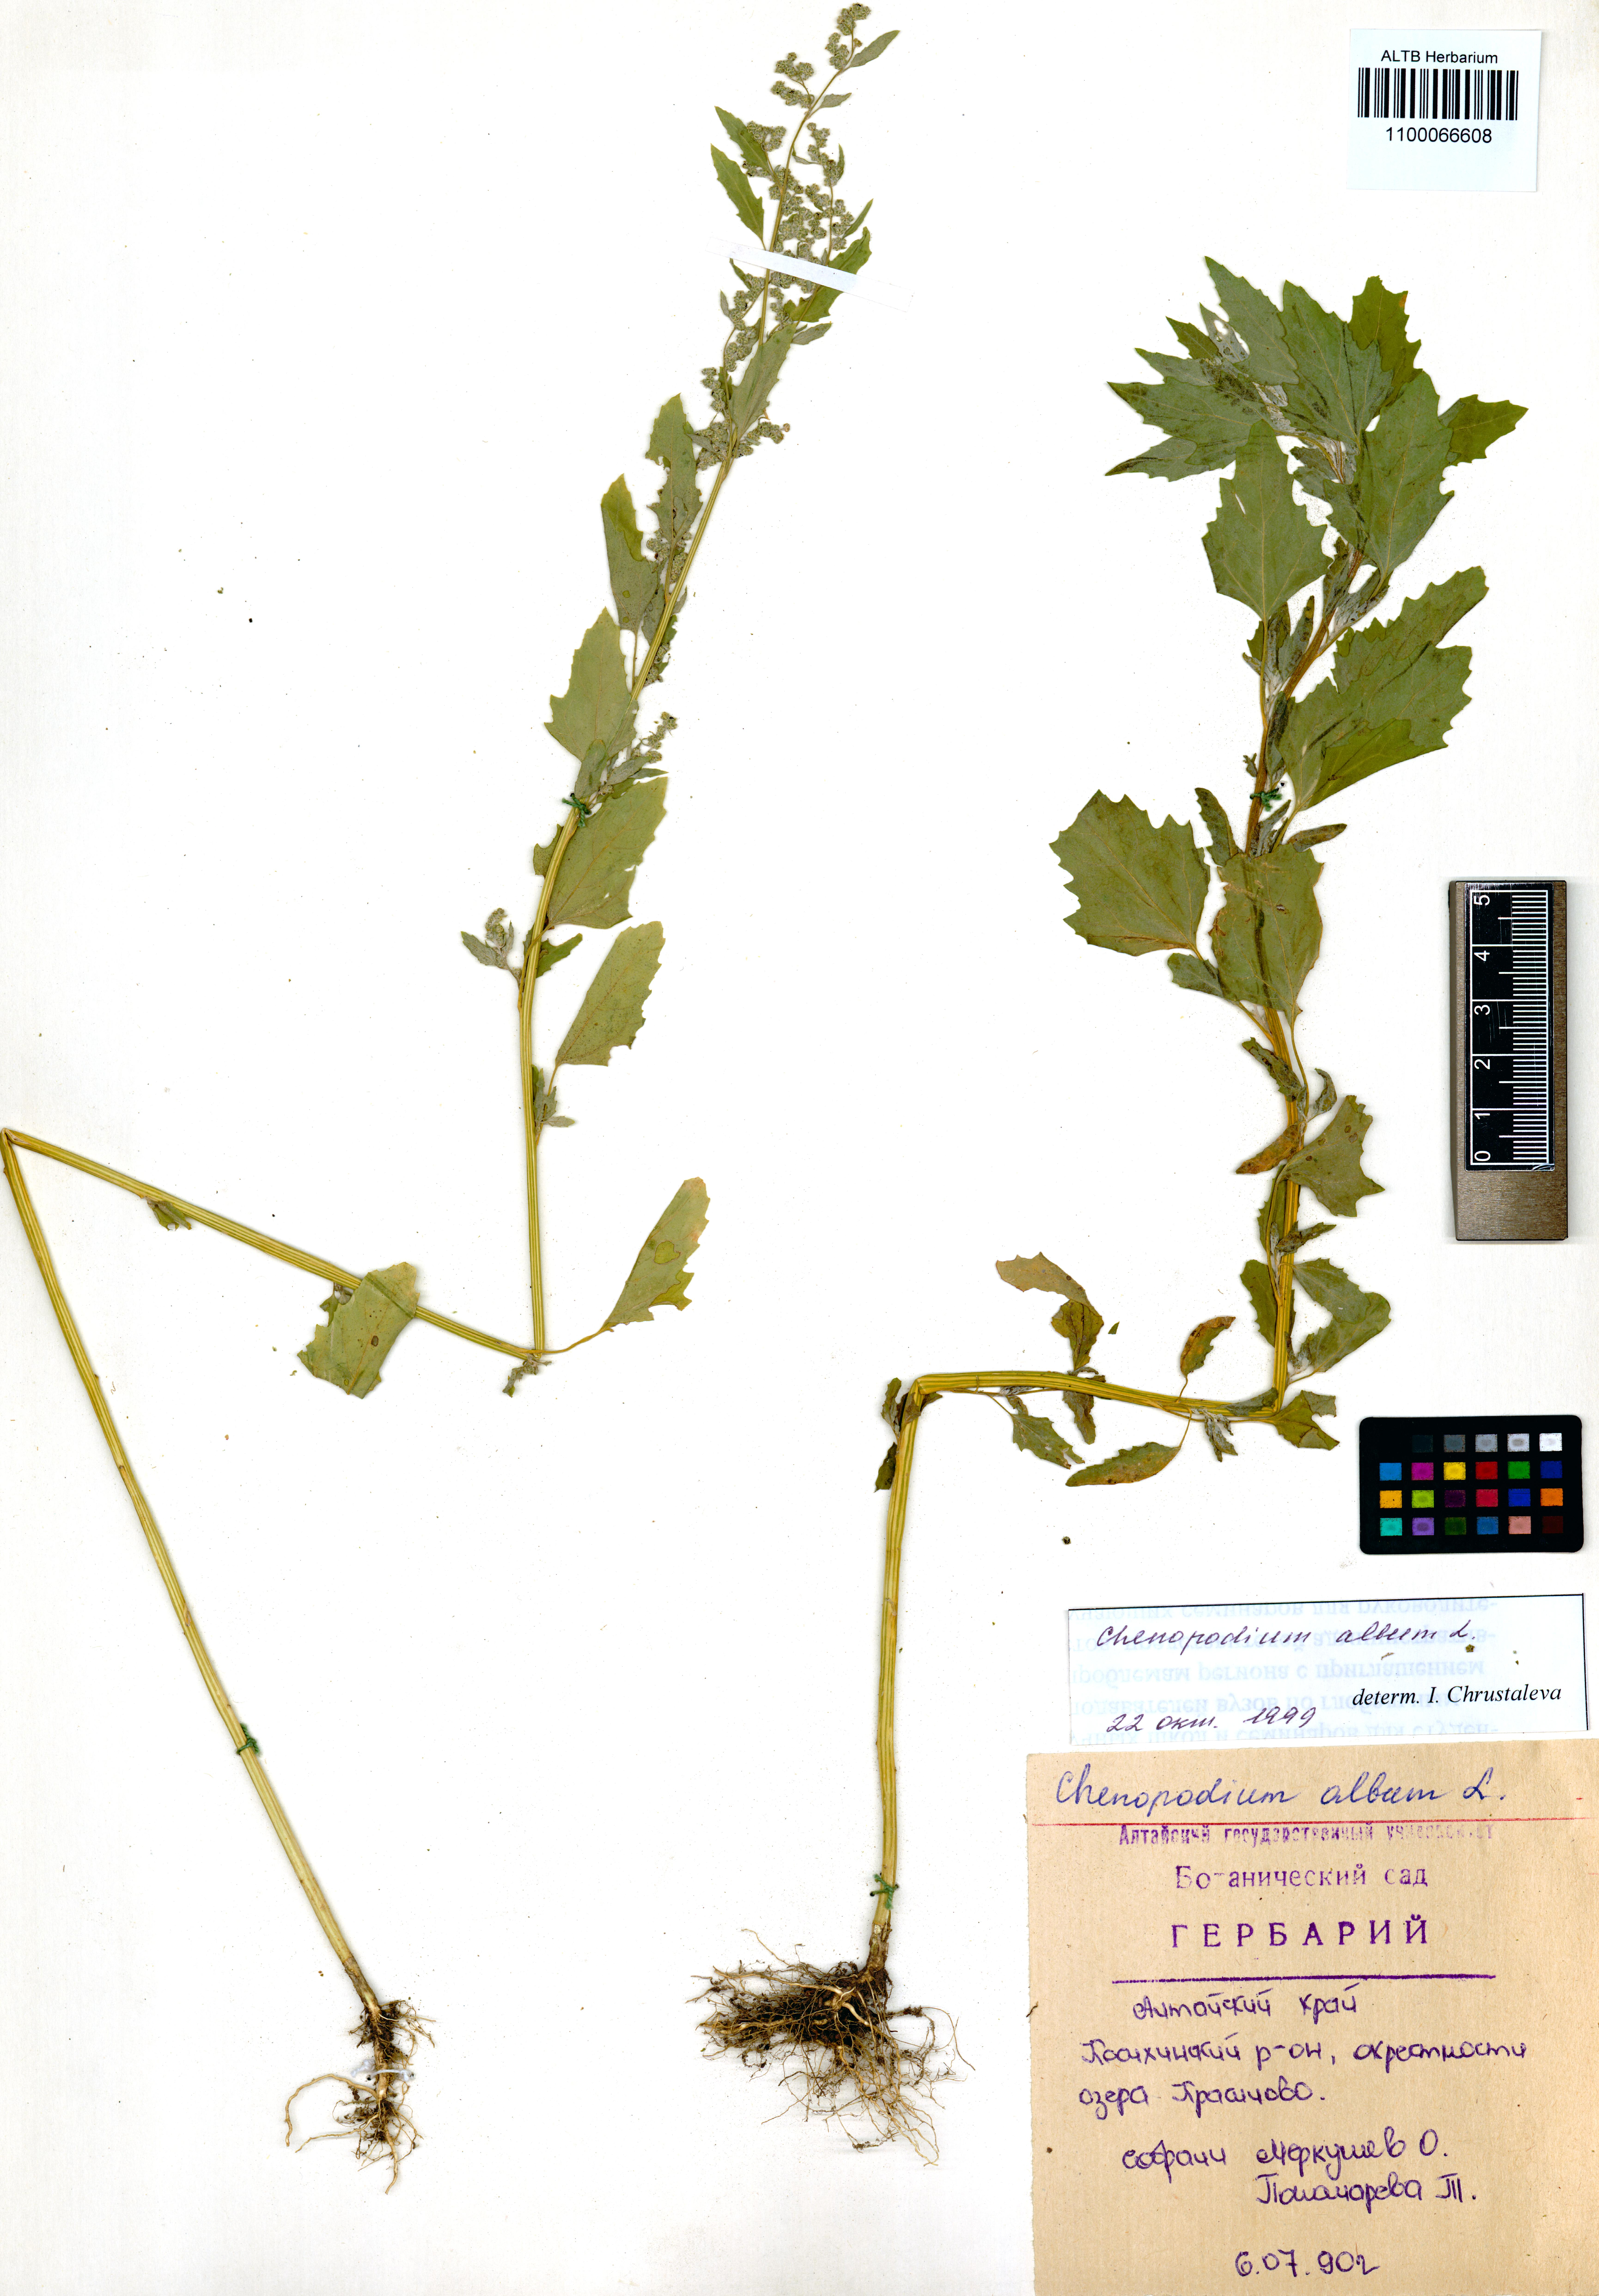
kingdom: Plantae
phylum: Tracheophyta
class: Magnoliopsida
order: Caryophyllales
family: Amaranthaceae
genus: Chenopodium
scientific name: Chenopodium album
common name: Fat-hen
